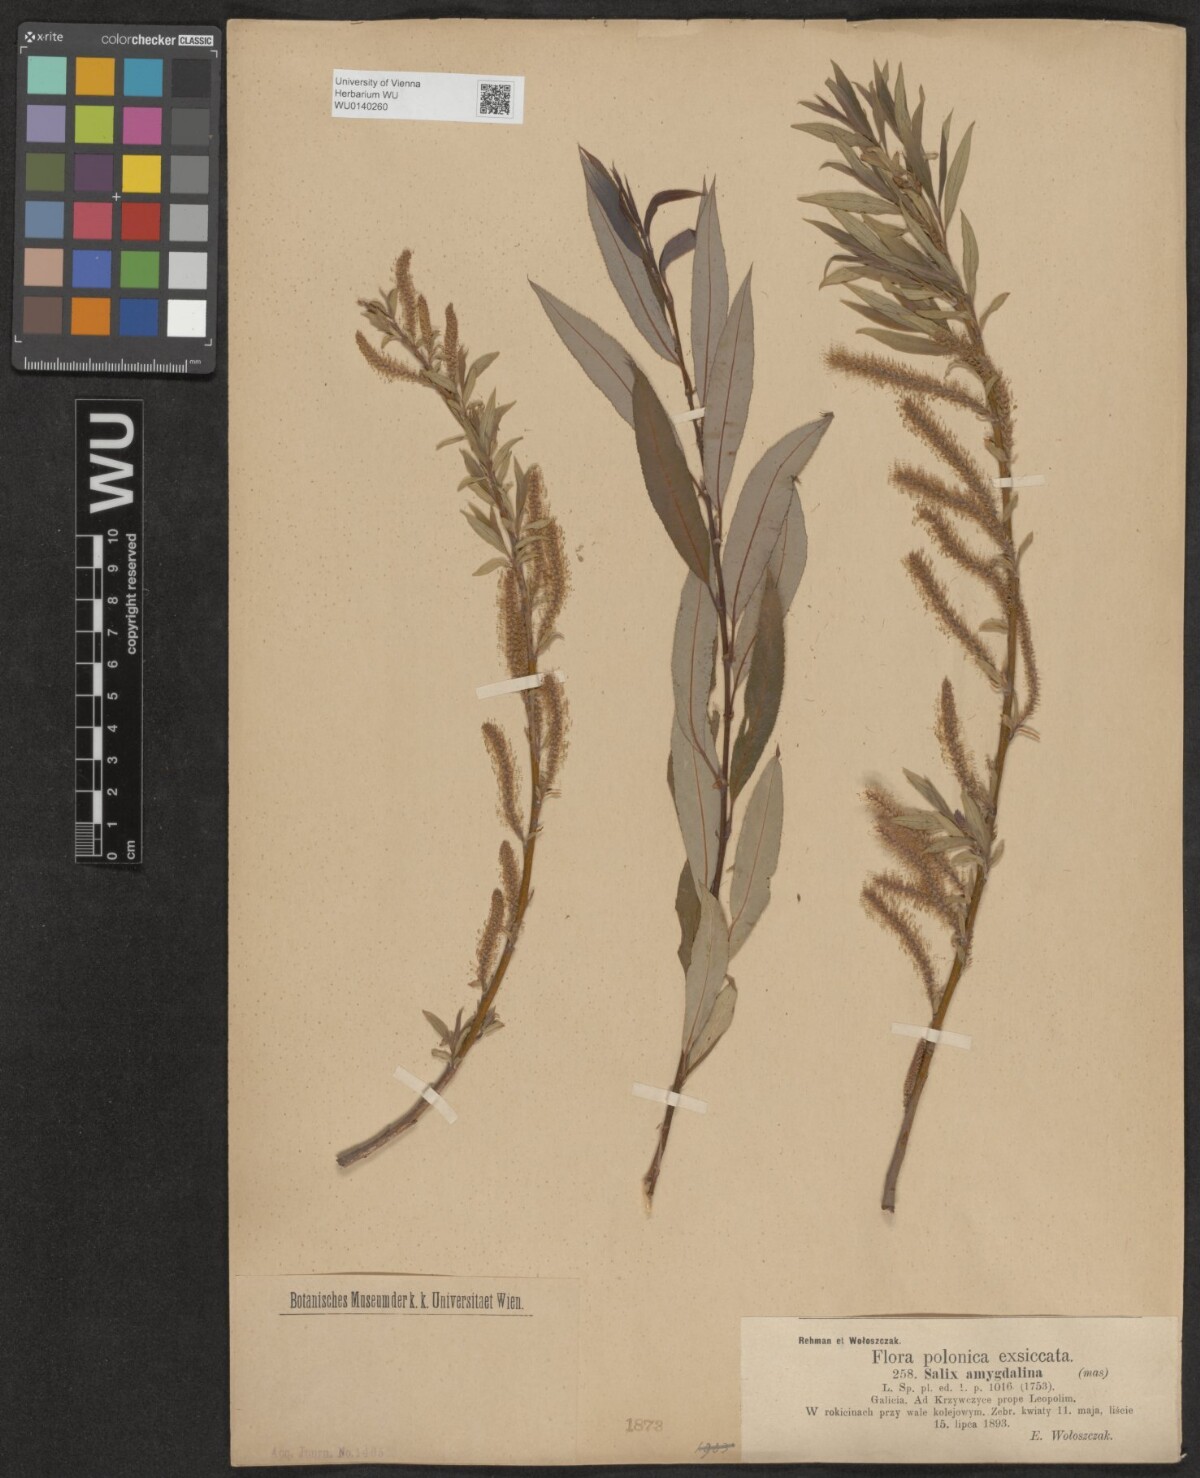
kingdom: Plantae
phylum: Tracheophyta
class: Magnoliopsida
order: Malpighiales
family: Salicaceae
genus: Salix
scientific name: Salix triandra
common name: Almond willow
